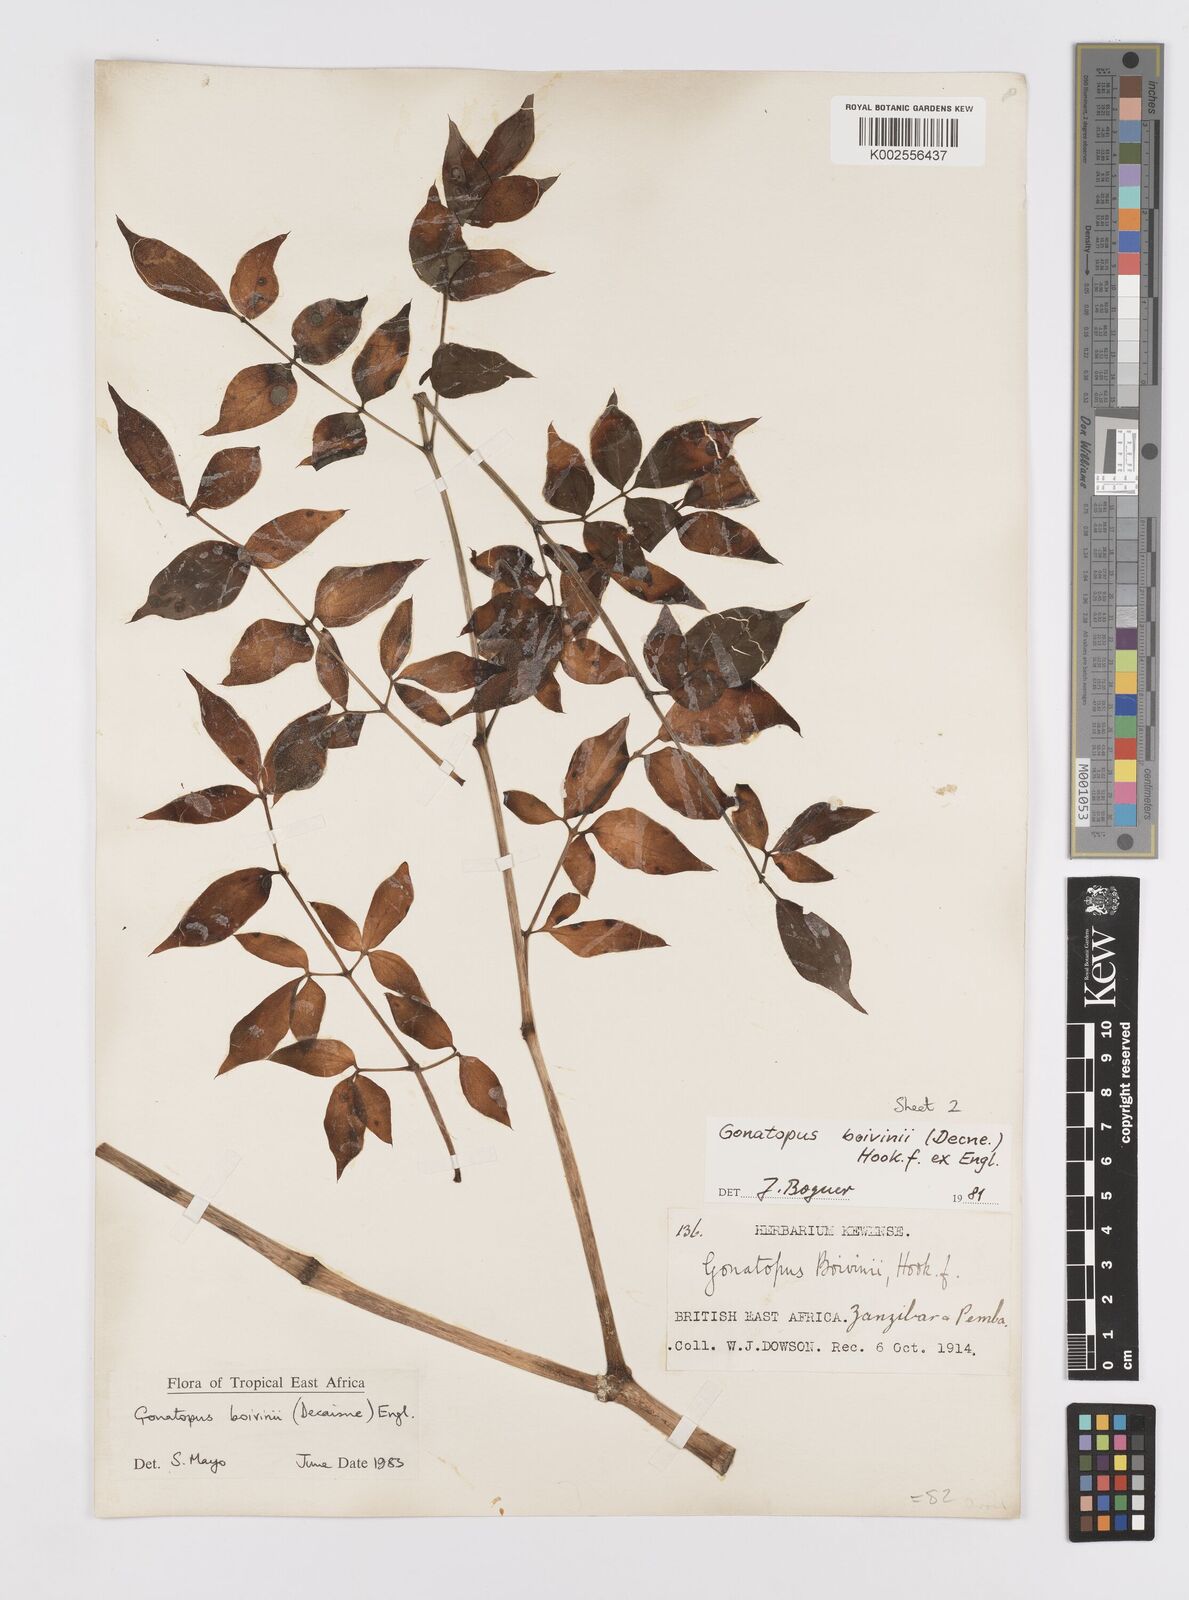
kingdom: Plantae
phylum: Tracheophyta
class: Liliopsida
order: Alismatales
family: Araceae
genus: Gonatopus
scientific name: Gonatopus boivinii
